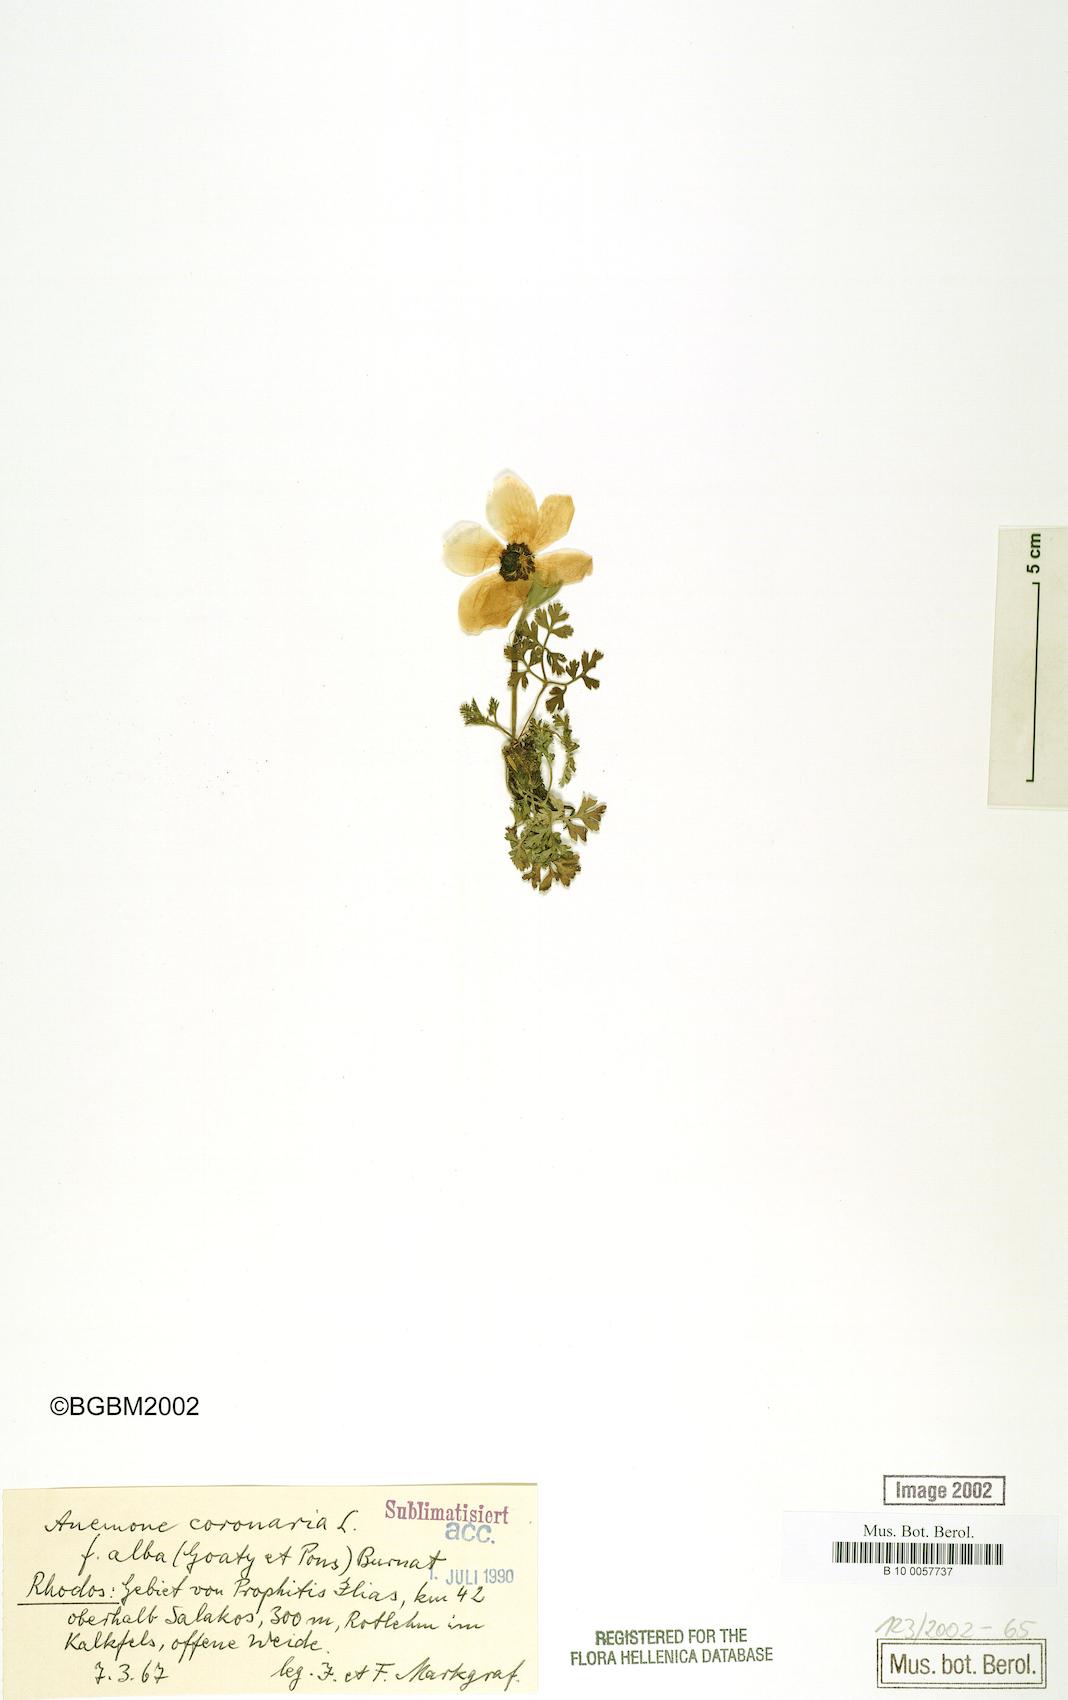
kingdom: Plantae
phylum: Tracheophyta
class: Magnoliopsida
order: Ranunculales
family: Ranunculaceae
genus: Anemone
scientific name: Anemone coronaria
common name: Poppy anemone
